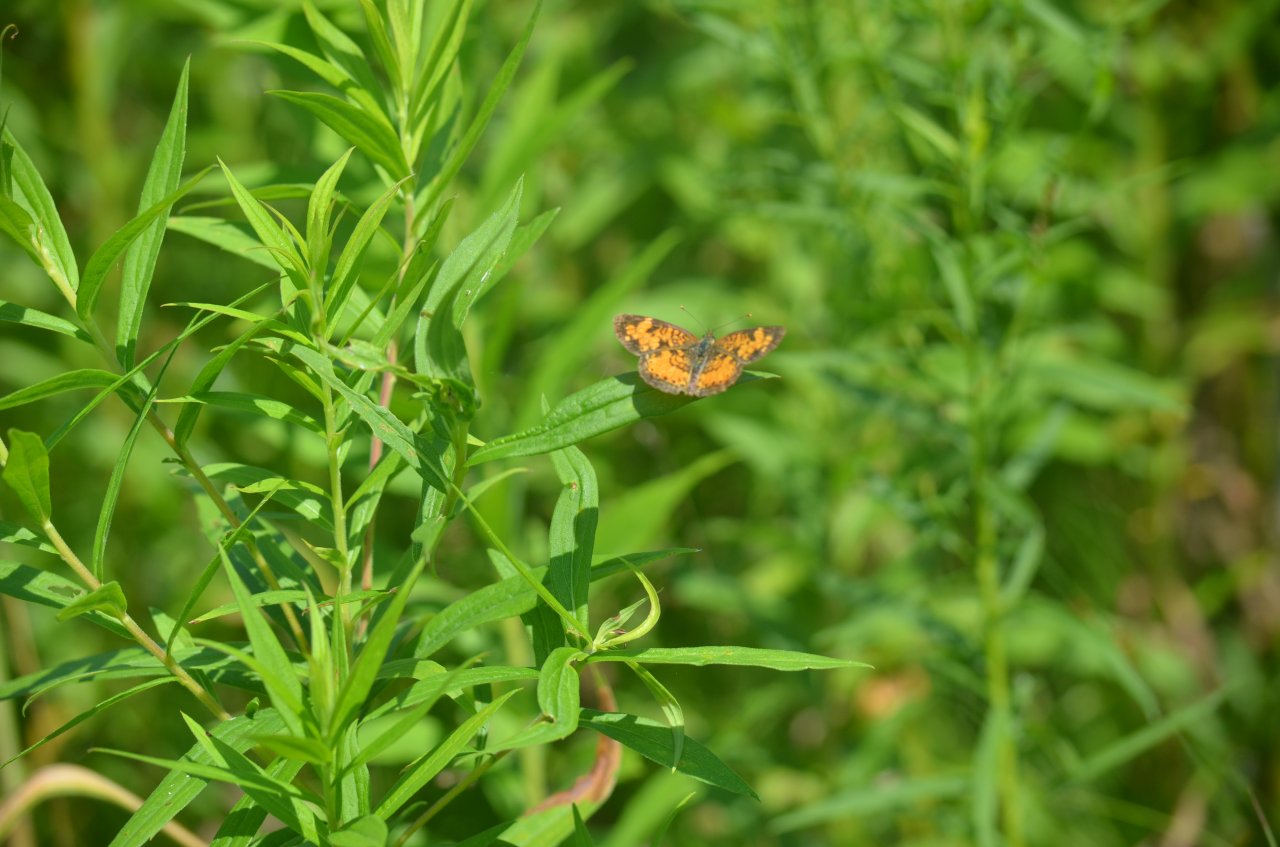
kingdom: Animalia
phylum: Arthropoda
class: Insecta
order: Lepidoptera
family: Nymphalidae
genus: Phyciodes
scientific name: Phyciodes tharos
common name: Northern Crescent
